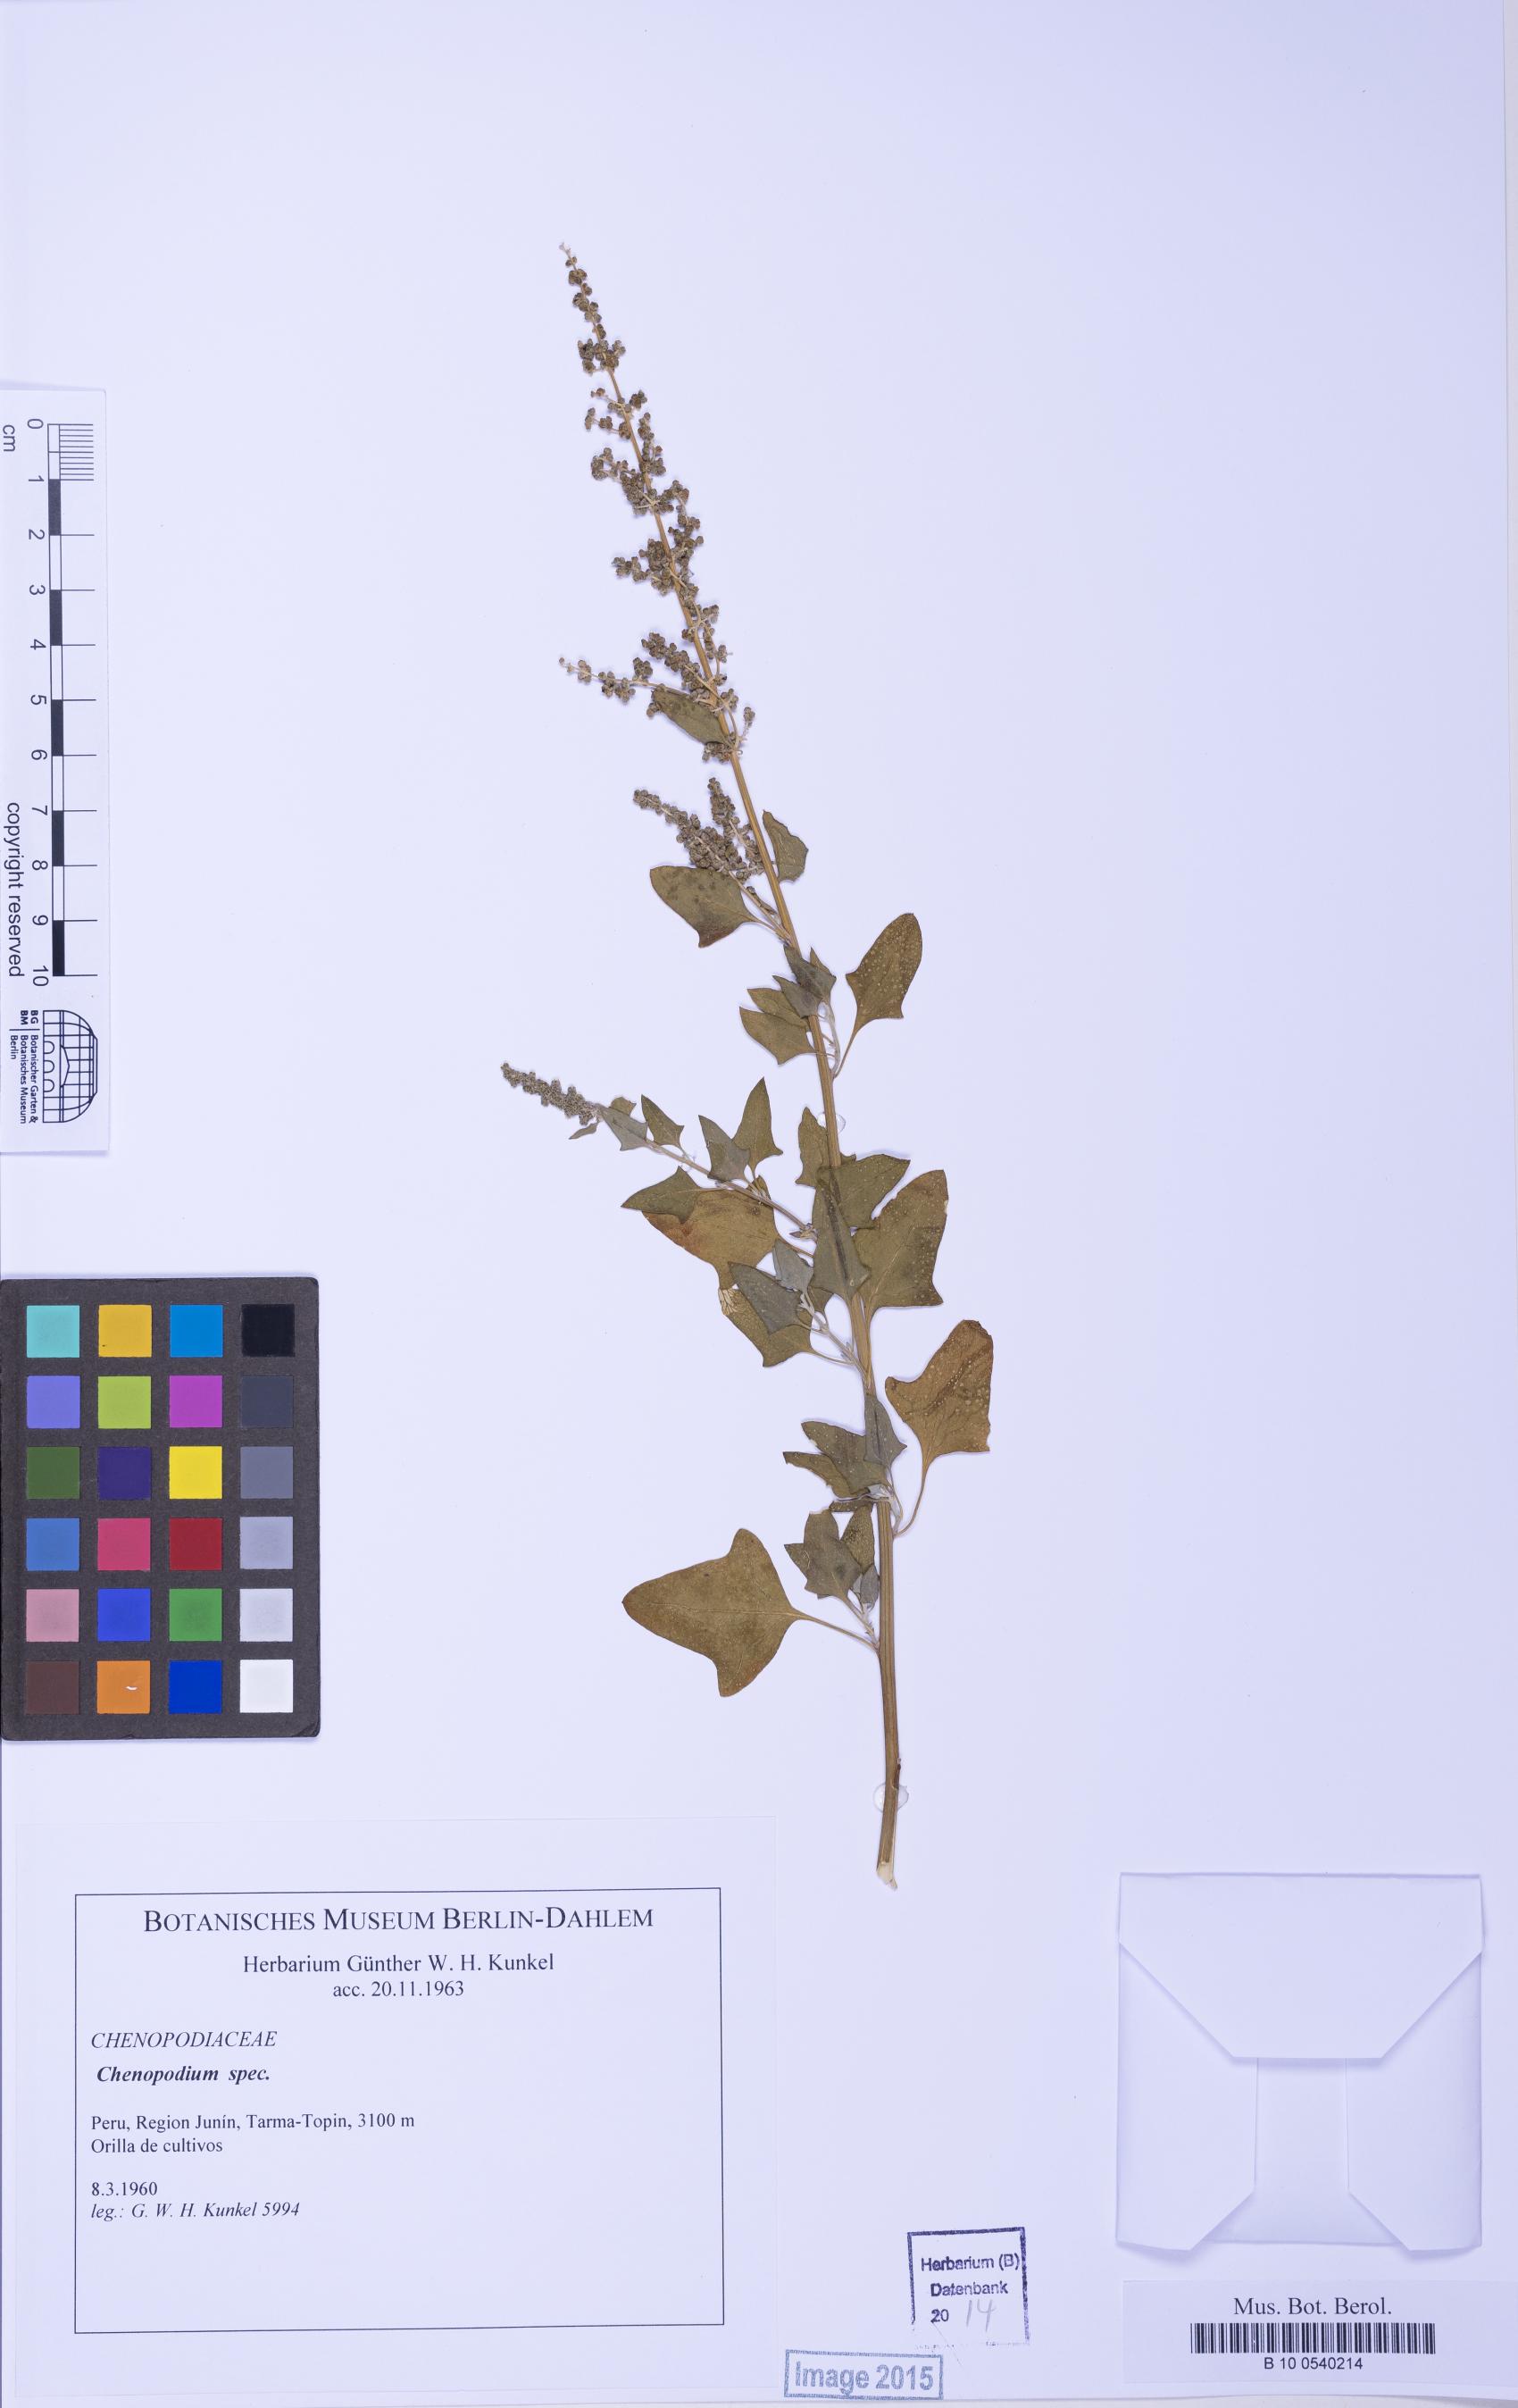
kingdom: Plantae
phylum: Tracheophyta
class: Magnoliopsida
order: Caryophyllales
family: Amaranthaceae
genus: Chenopodium
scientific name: Chenopodium
